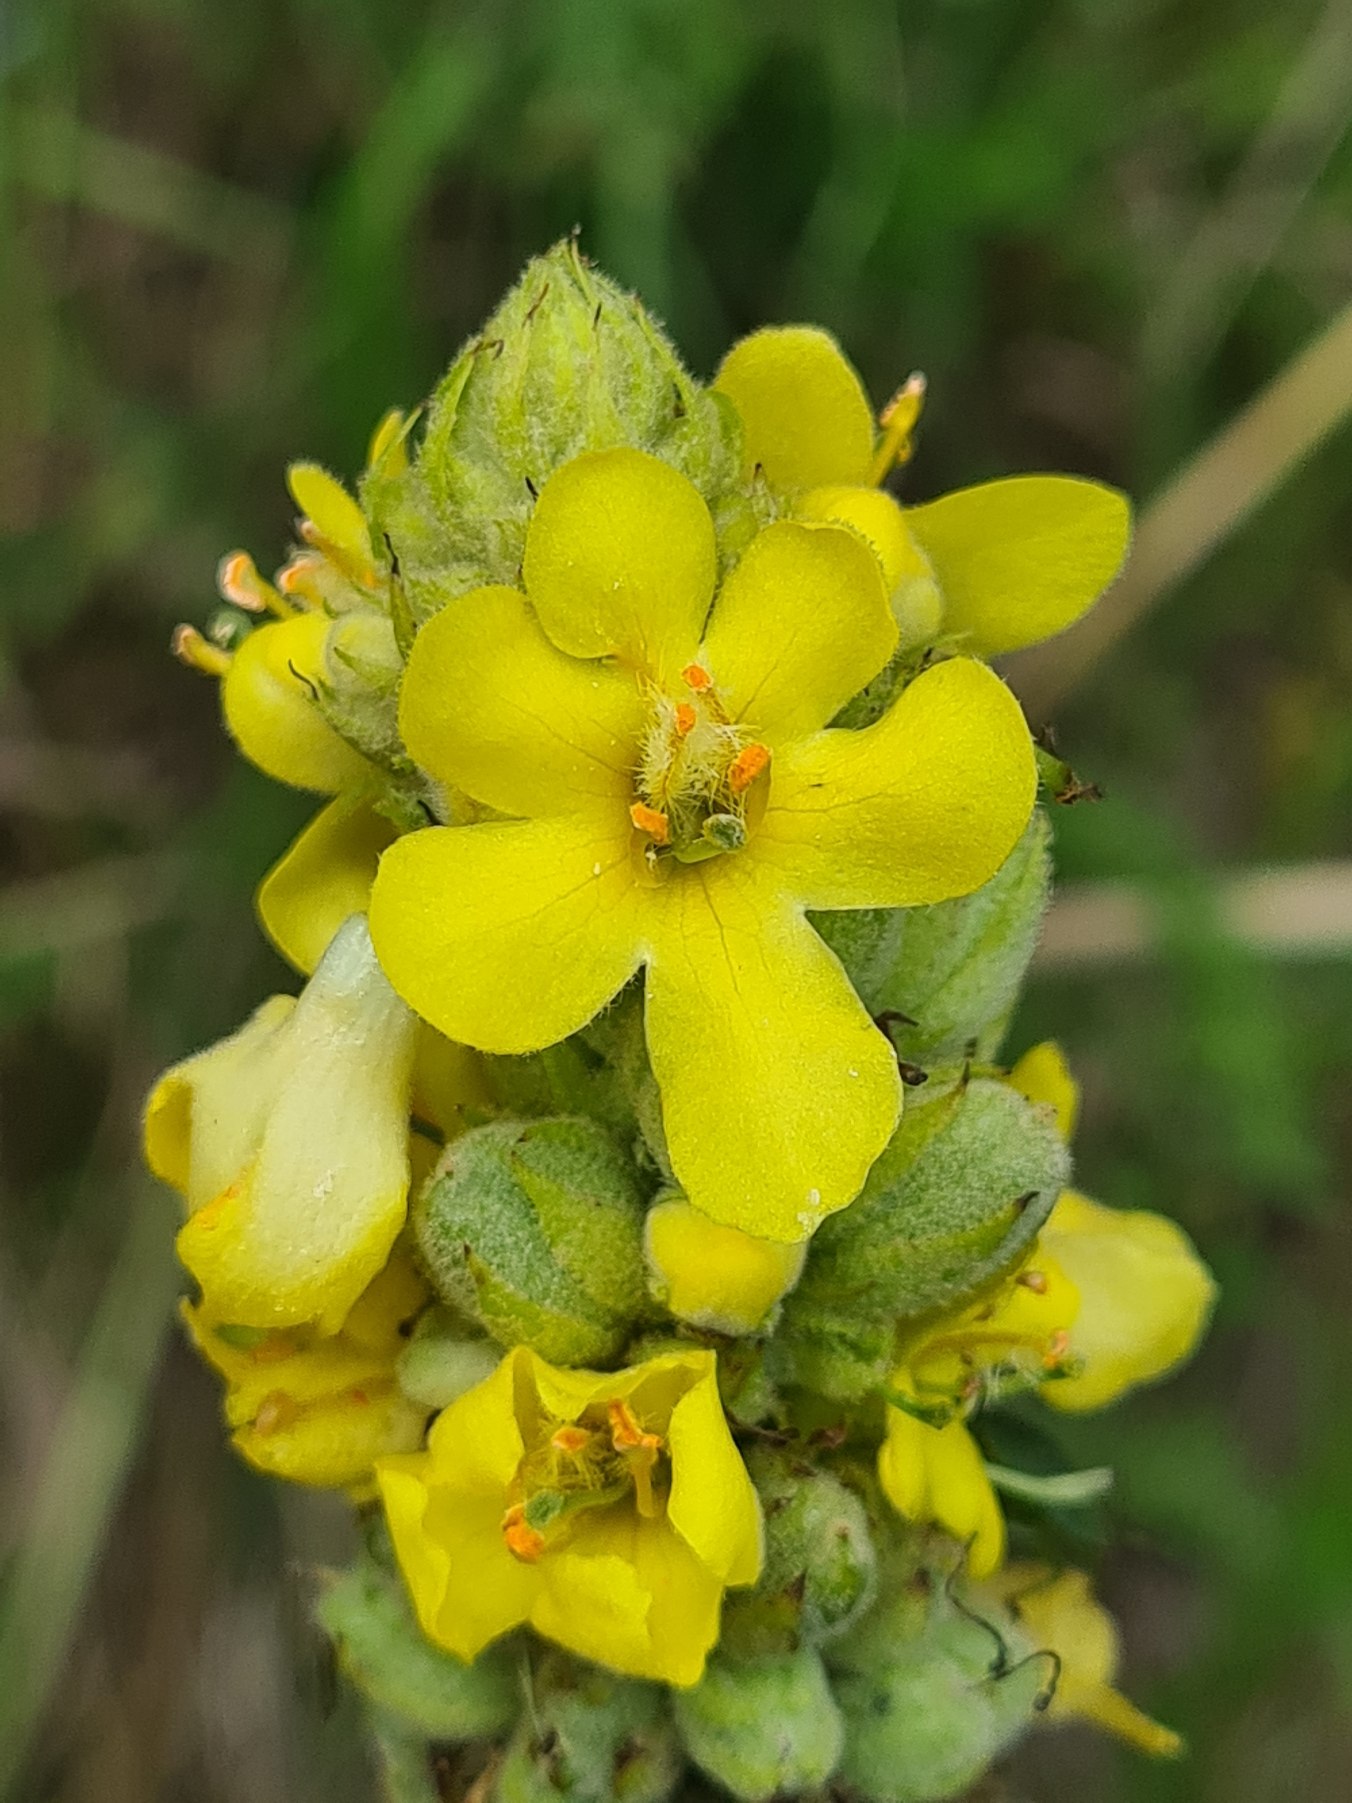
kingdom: Plantae
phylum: Tracheophyta
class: Magnoliopsida
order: Lamiales
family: Scrophulariaceae
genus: Verbascum
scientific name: Verbascum thapsus
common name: Filtbladet kongelys
